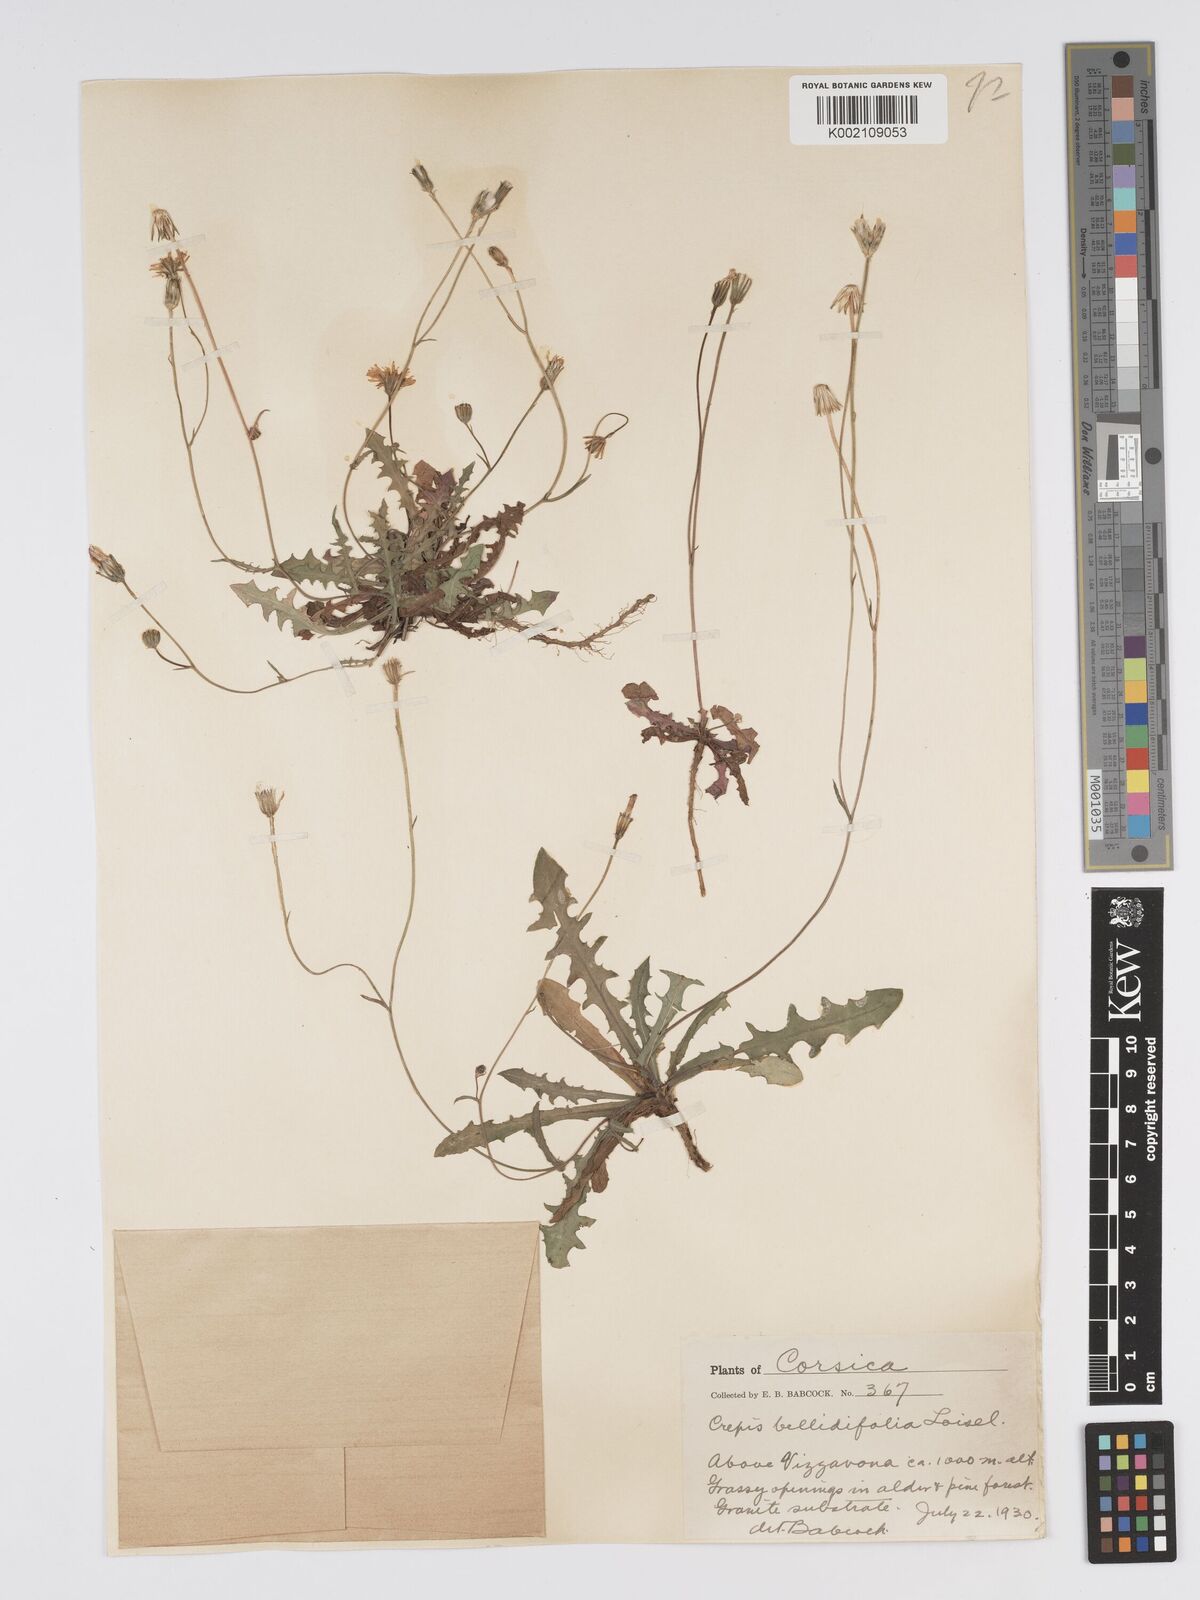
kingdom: Plantae
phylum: Tracheophyta
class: Magnoliopsida
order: Asterales
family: Asteraceae
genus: Crepis
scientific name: Crepis bellidifolia
